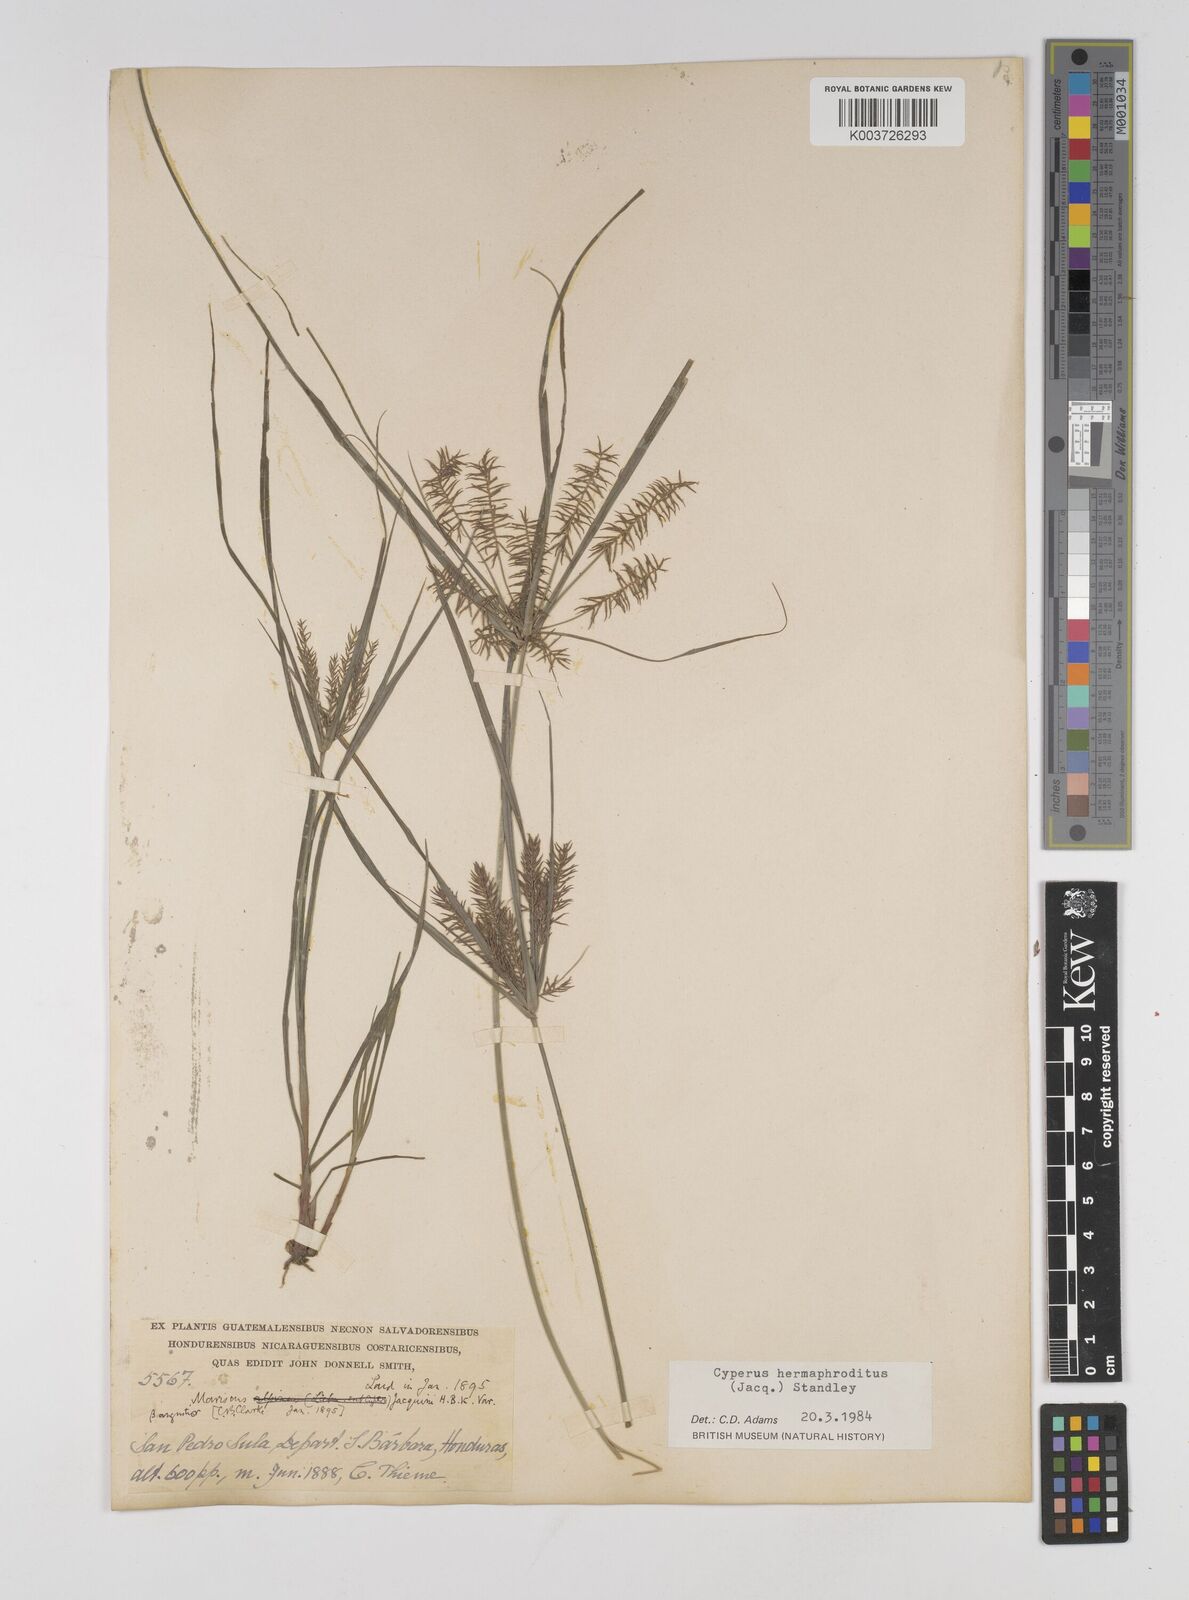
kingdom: Plantae
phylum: Tracheophyta
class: Liliopsida
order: Poales
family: Cyperaceae
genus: Cyperus
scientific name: Cyperus thyrsiflorus
